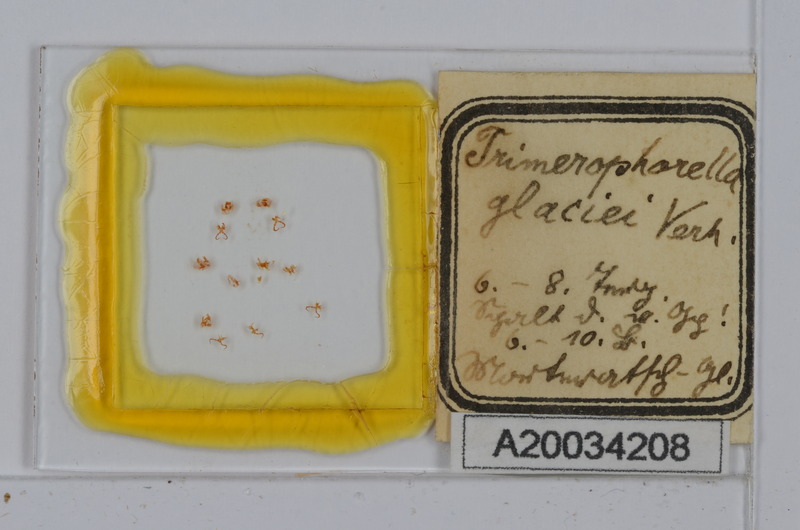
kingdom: Animalia
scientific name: Animalia
